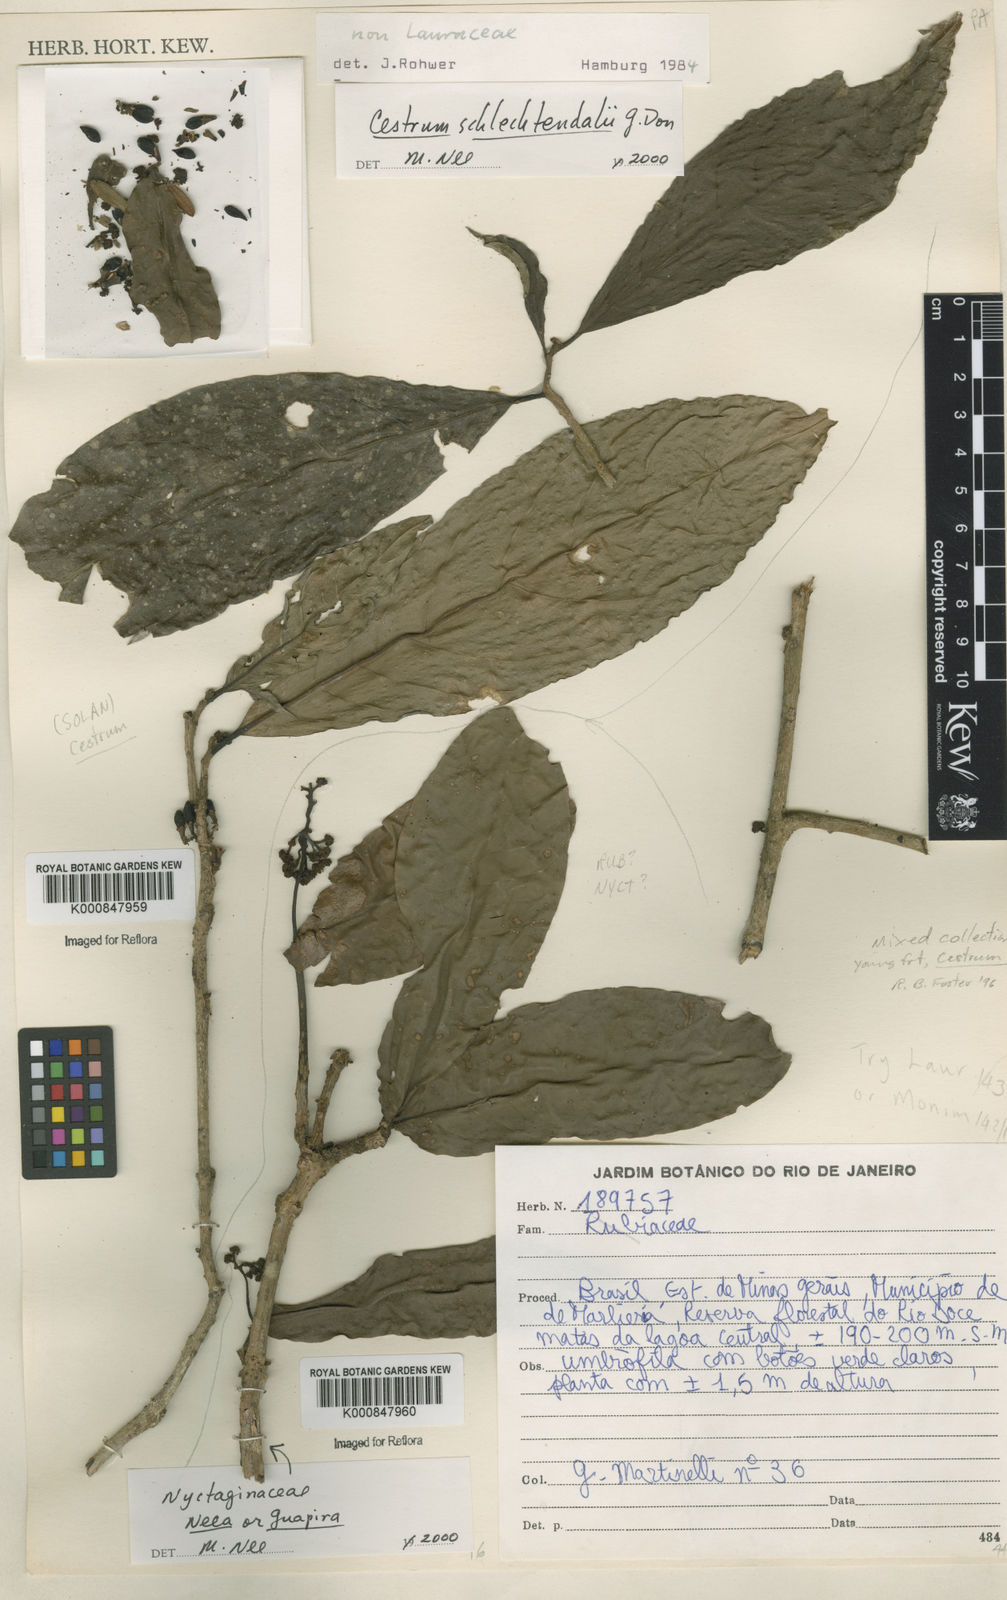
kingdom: Plantae
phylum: Tracheophyta
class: Magnoliopsida
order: Solanales
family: Solanaceae
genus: Cestrum
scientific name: Cestrum schlechtendalii
